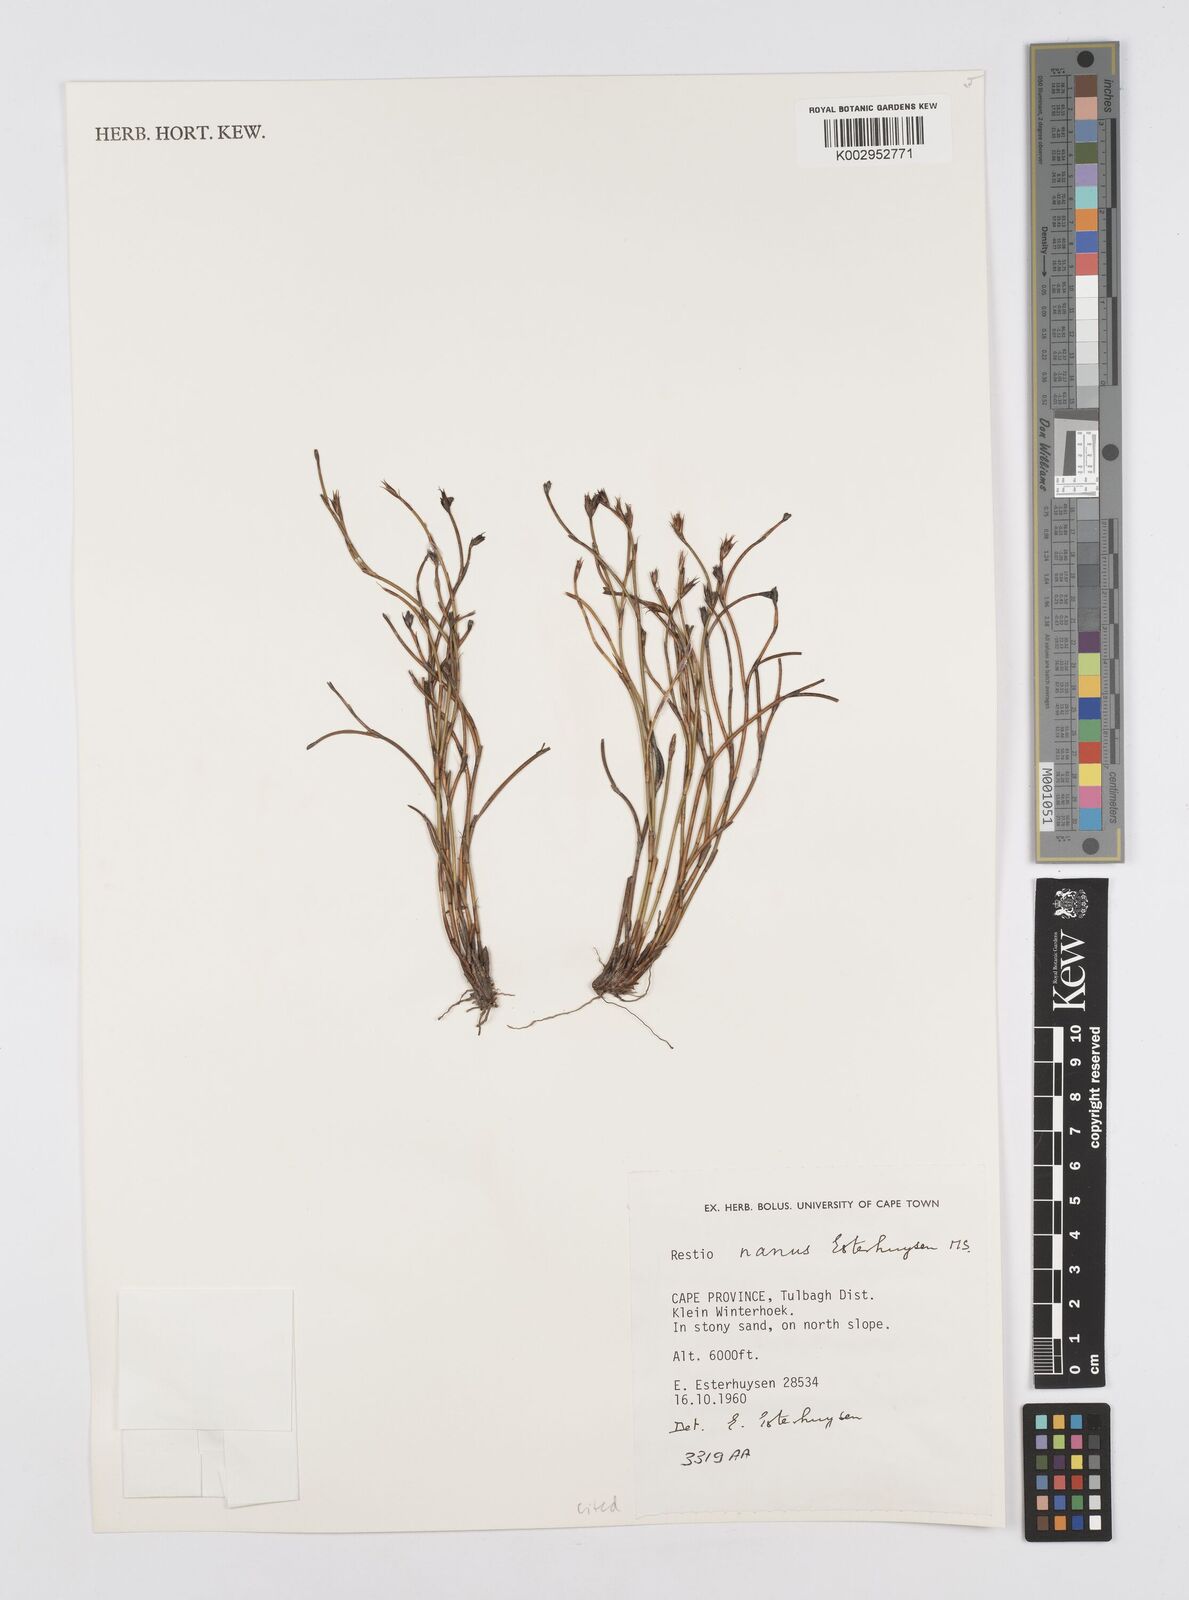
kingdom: Plantae
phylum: Tracheophyta
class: Liliopsida
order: Poales
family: Restionaceae
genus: Restio
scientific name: Restio nanus
